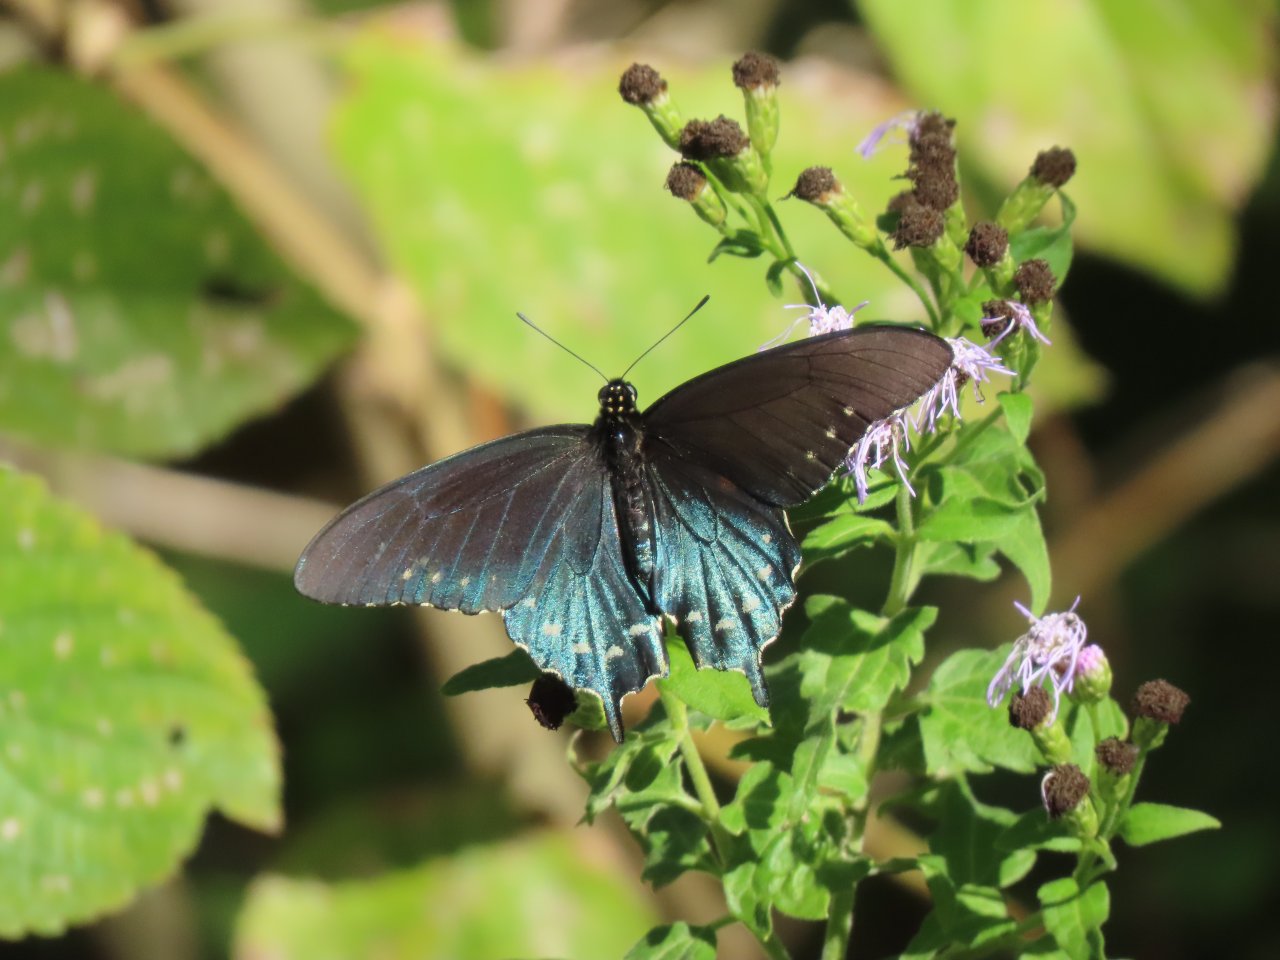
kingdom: Animalia
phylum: Arthropoda
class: Insecta
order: Lepidoptera
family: Papilionidae
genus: Battus
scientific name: Battus philenor
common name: Pipevine Swallowtail
